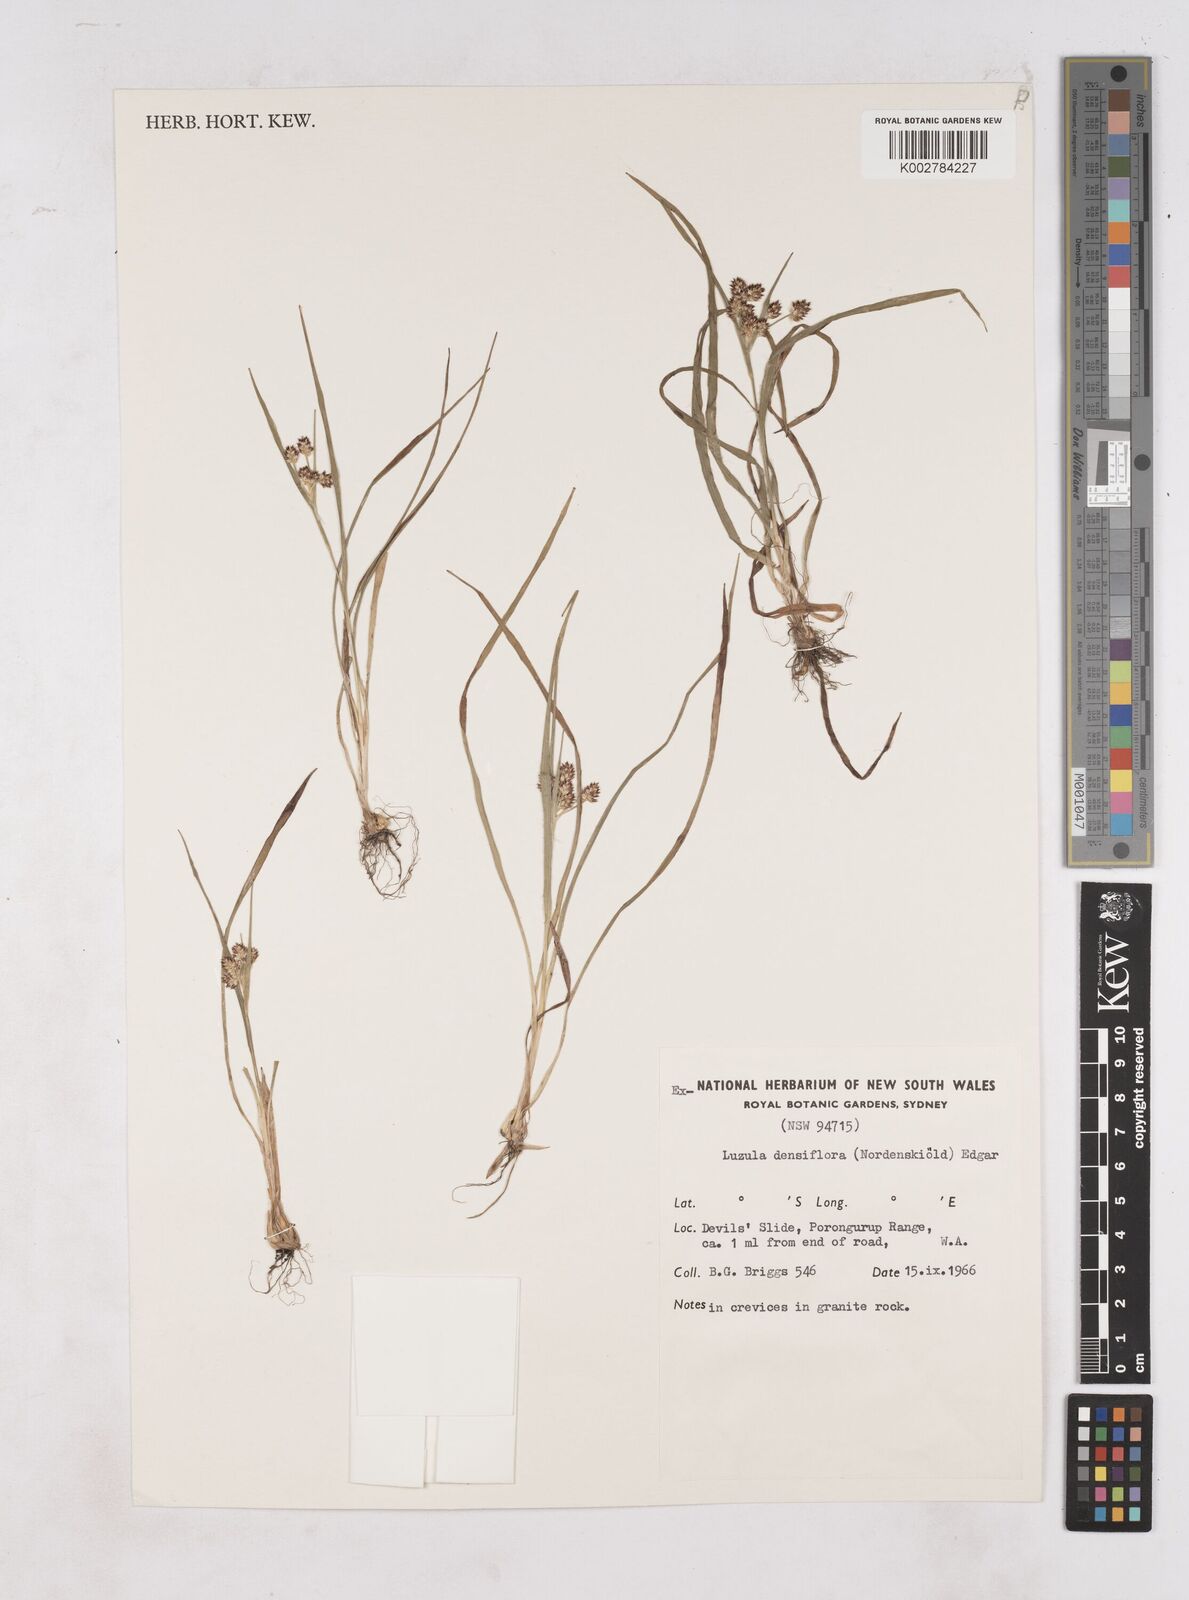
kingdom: Plantae
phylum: Tracheophyta
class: Liliopsida
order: Poales
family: Juncaceae
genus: Luzula
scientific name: Luzula densiflora
